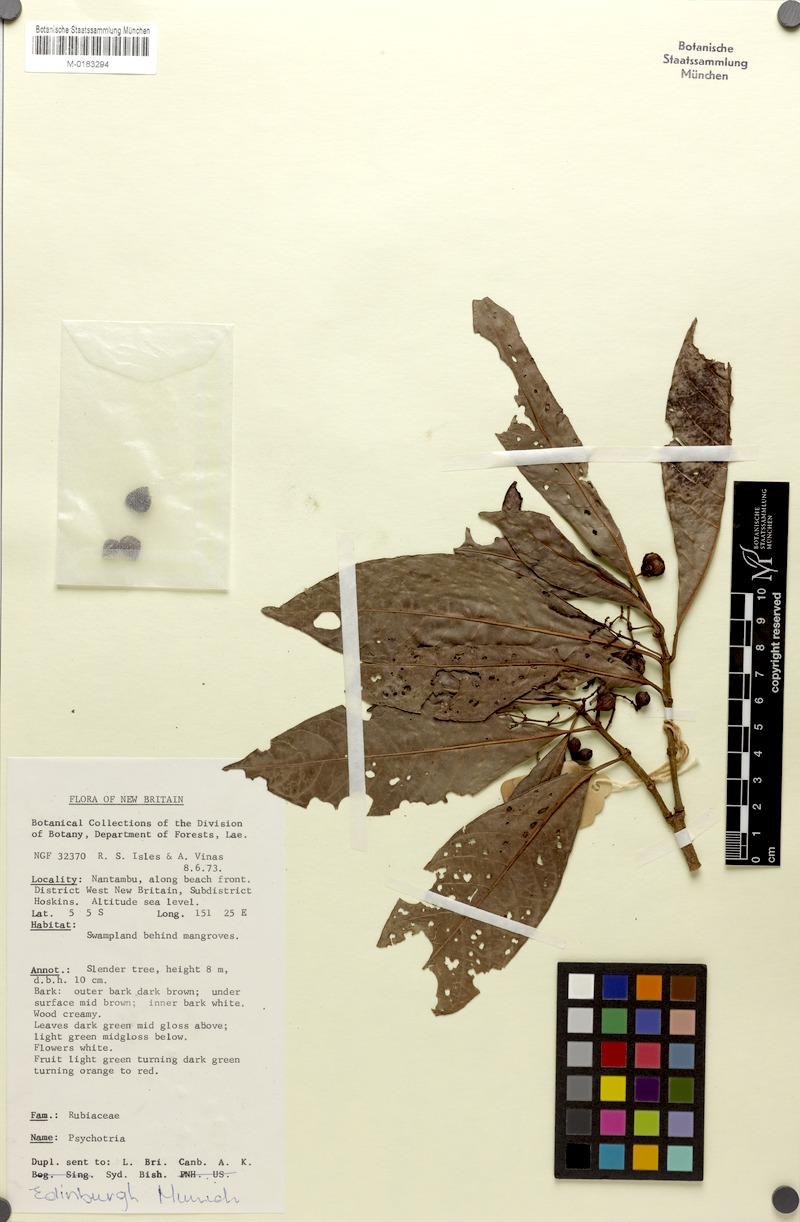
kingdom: Plantae
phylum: Tracheophyta
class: Magnoliopsida
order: Gentianales
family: Rubiaceae
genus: Psychotria
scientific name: Psychotria leleana
